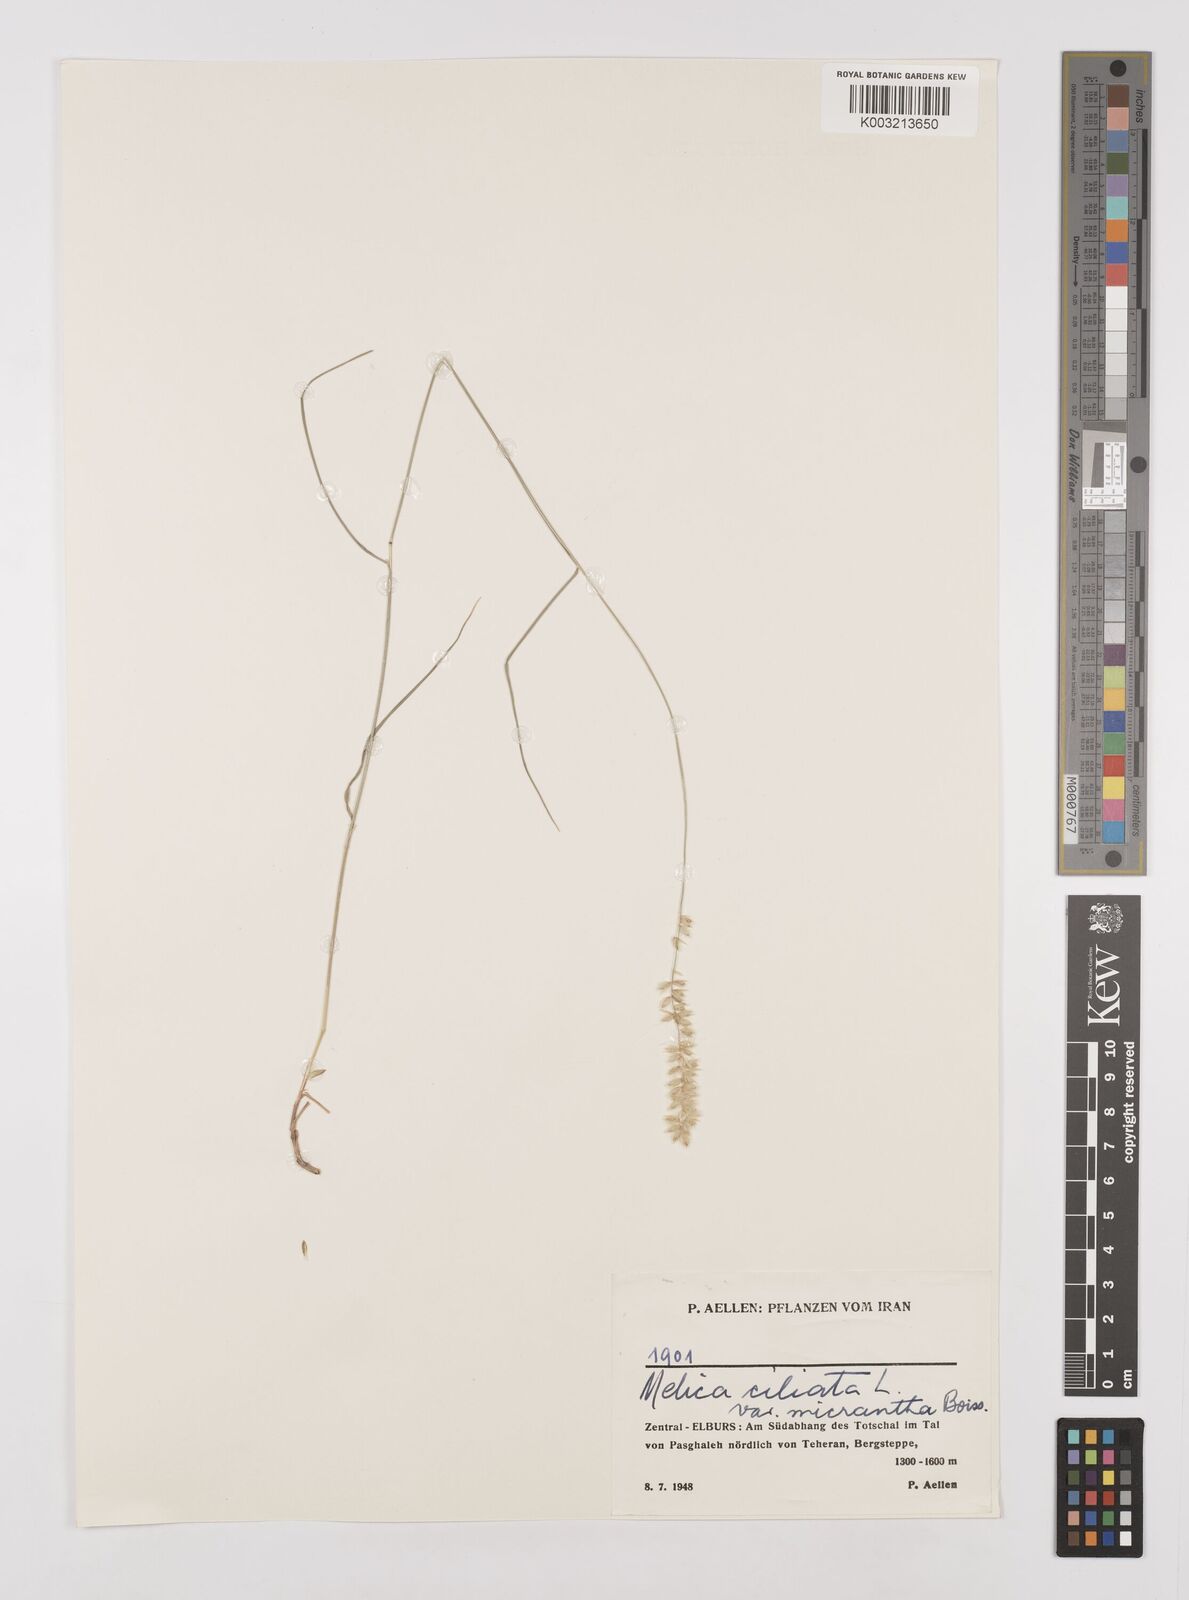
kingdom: Plantae
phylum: Tracheophyta
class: Liliopsida
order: Poales
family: Poaceae
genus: Melica
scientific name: Melica ciliata
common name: Hairy melicgrass
